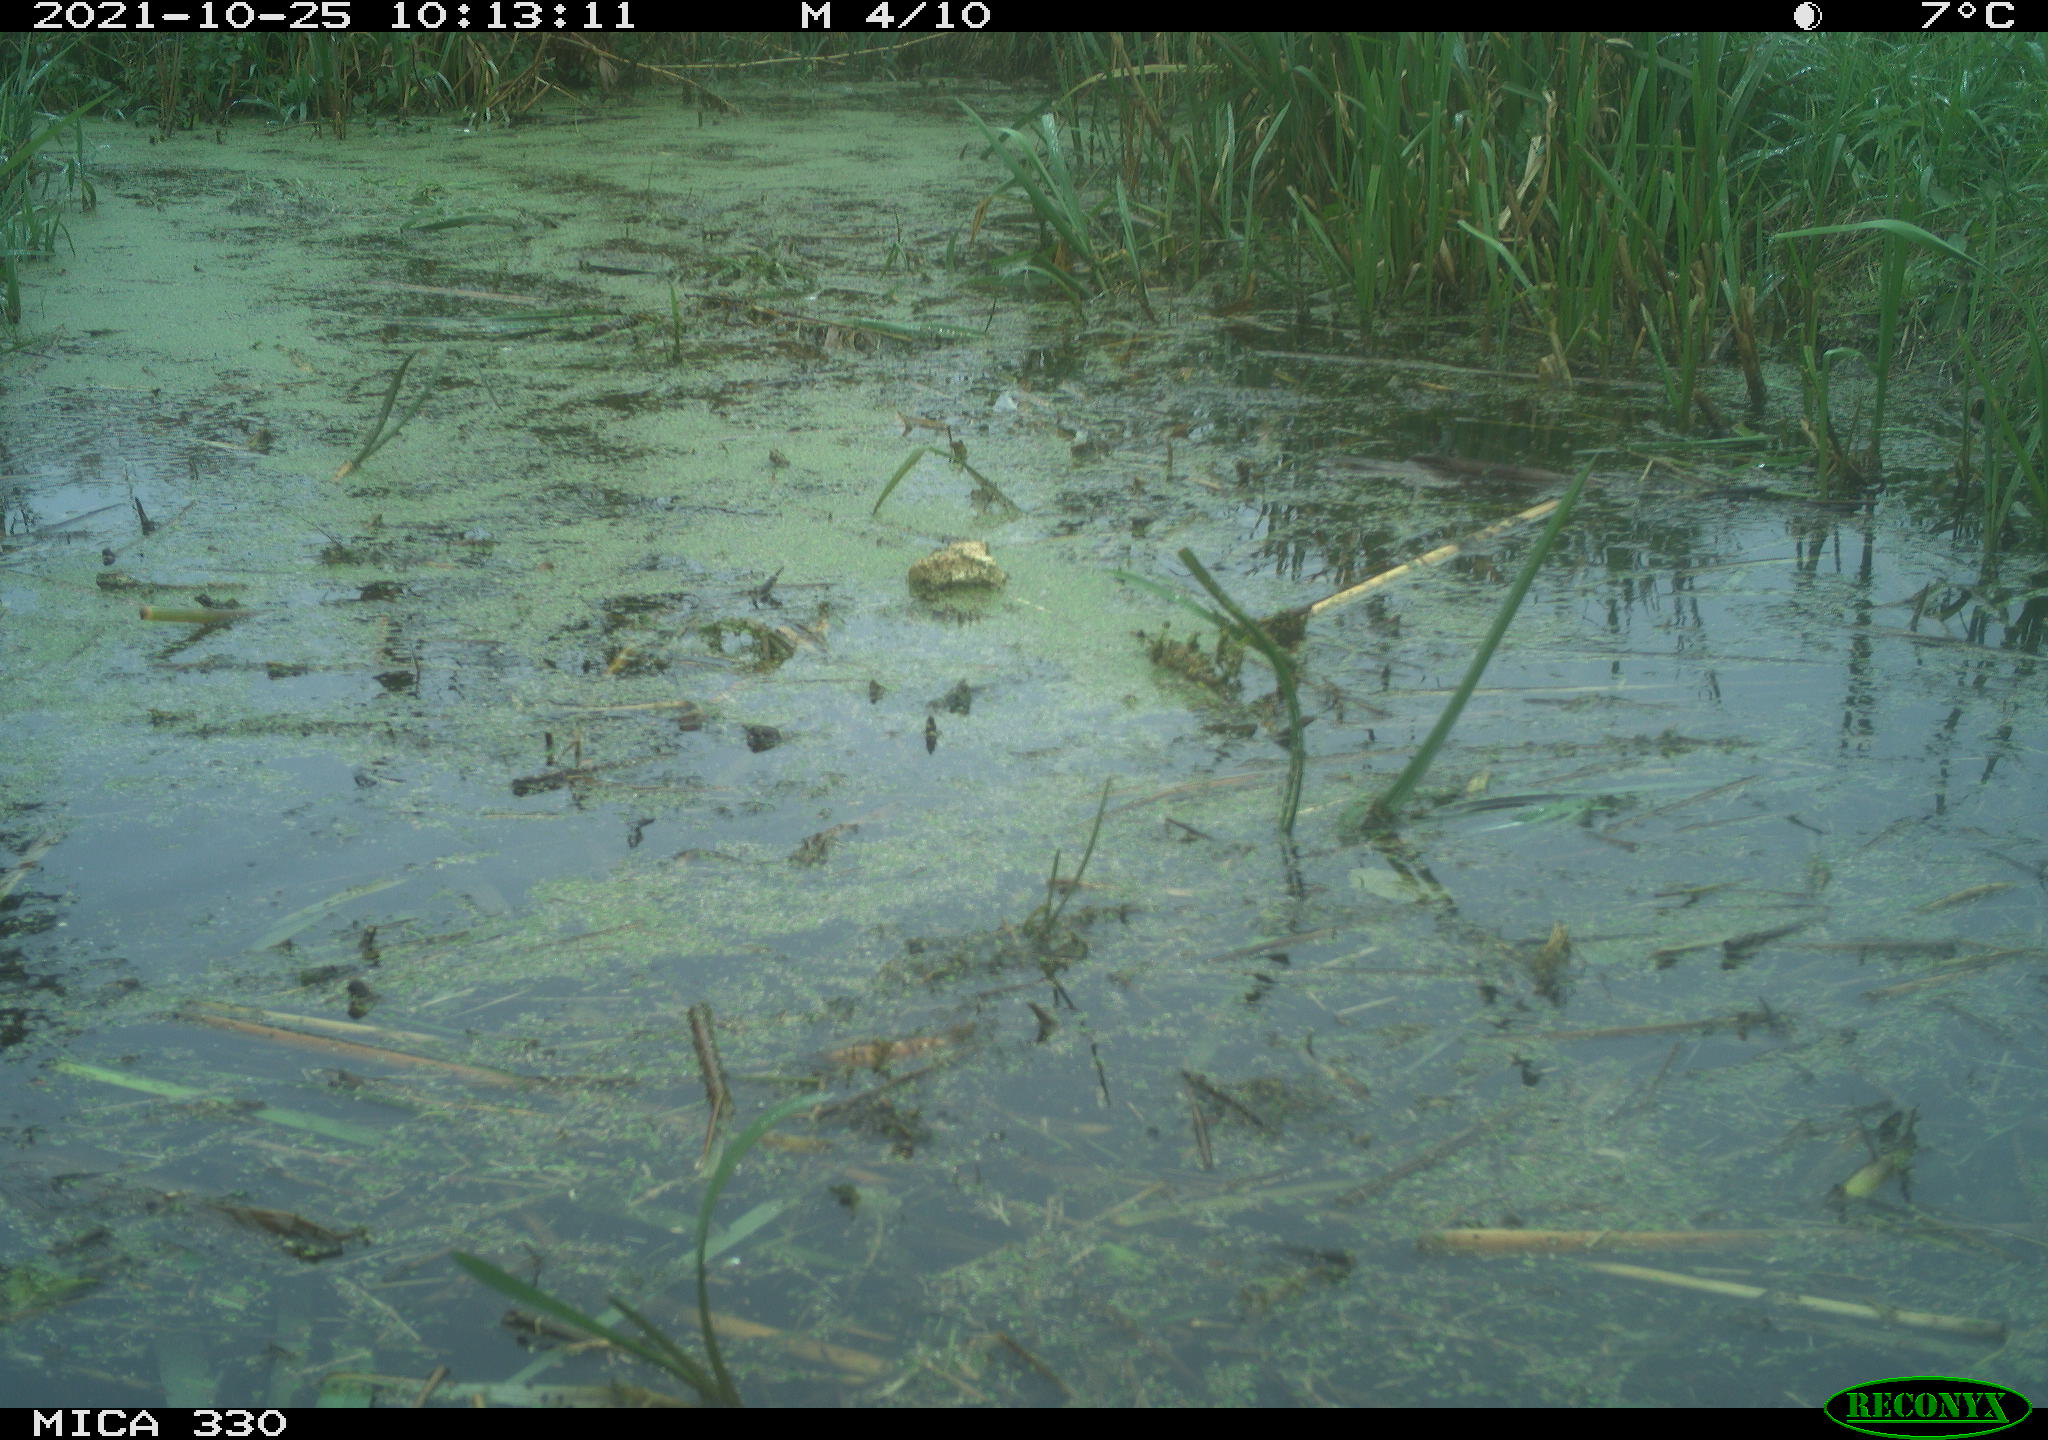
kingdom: Animalia
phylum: Chordata
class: Aves
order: Gruiformes
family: Rallidae
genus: Gallinula
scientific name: Gallinula chloropus
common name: Common moorhen
